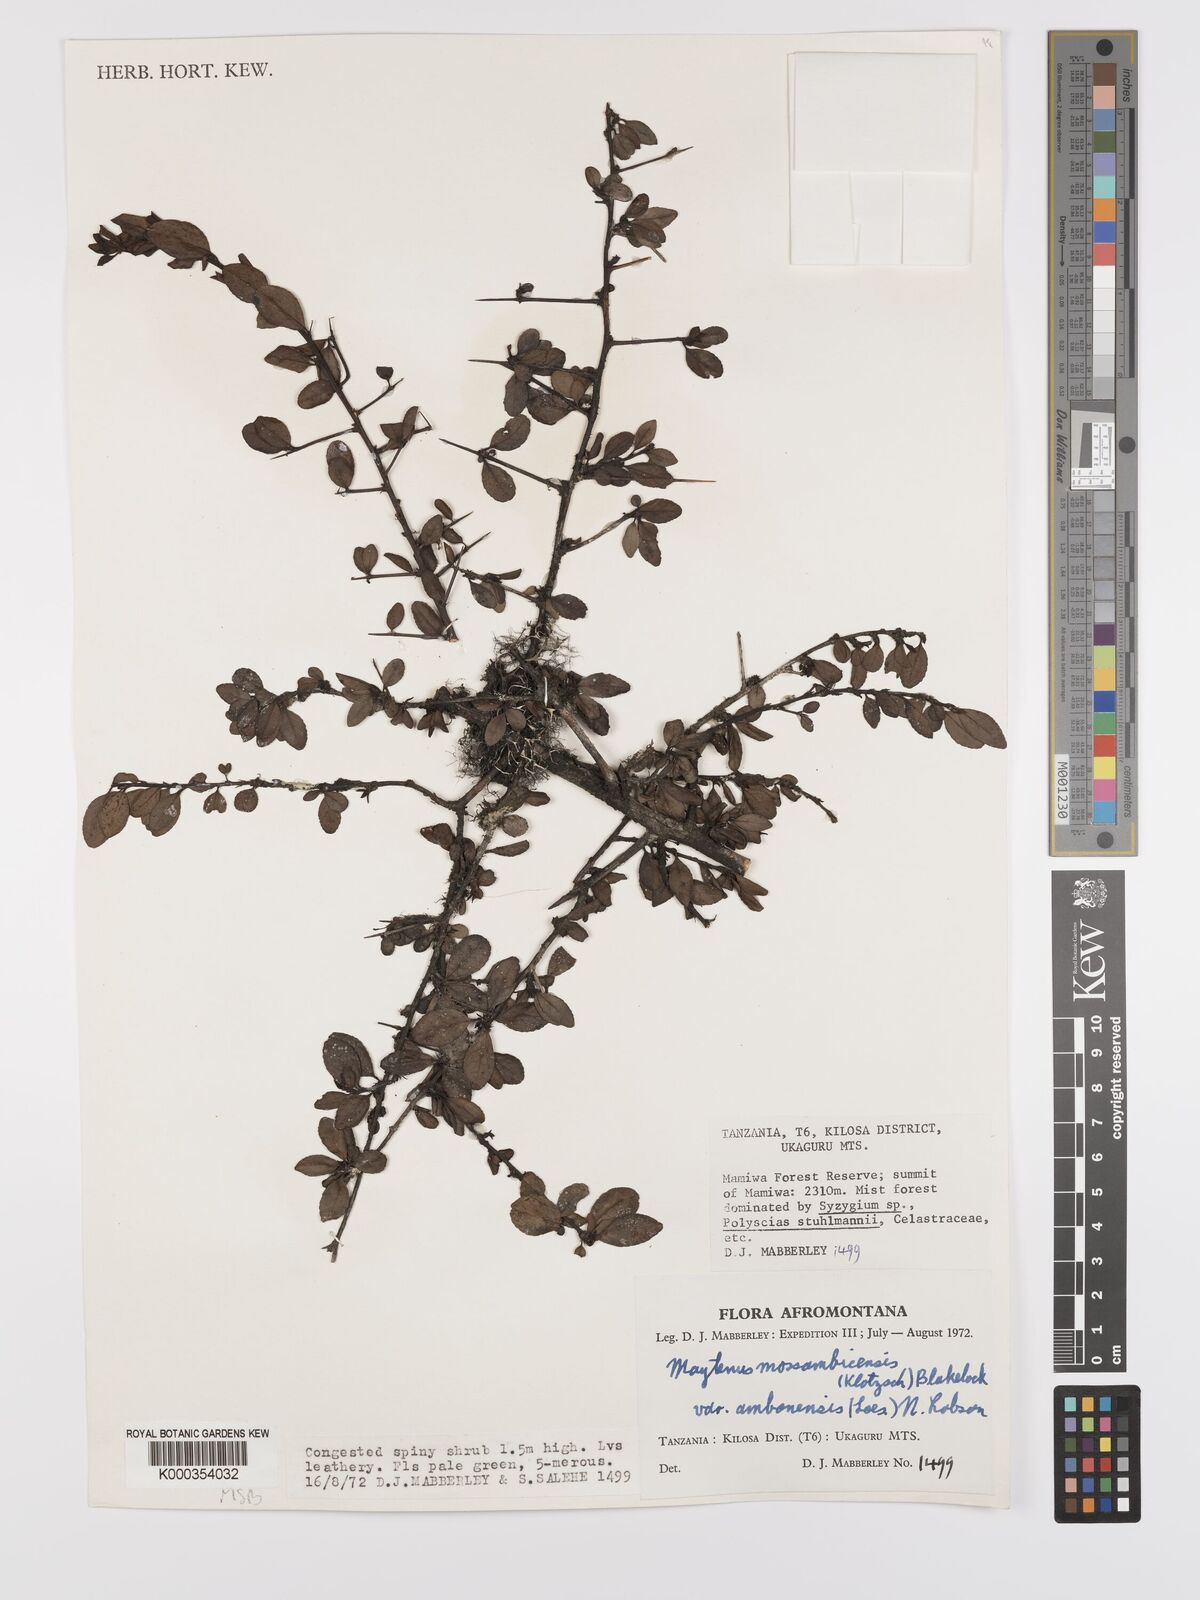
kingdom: Plantae
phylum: Tracheophyta
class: Magnoliopsida
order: Celastrales
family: Celastraceae
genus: Gymnosporia
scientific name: Gymnosporia mossambicensis
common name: Black forest spike-thorn
